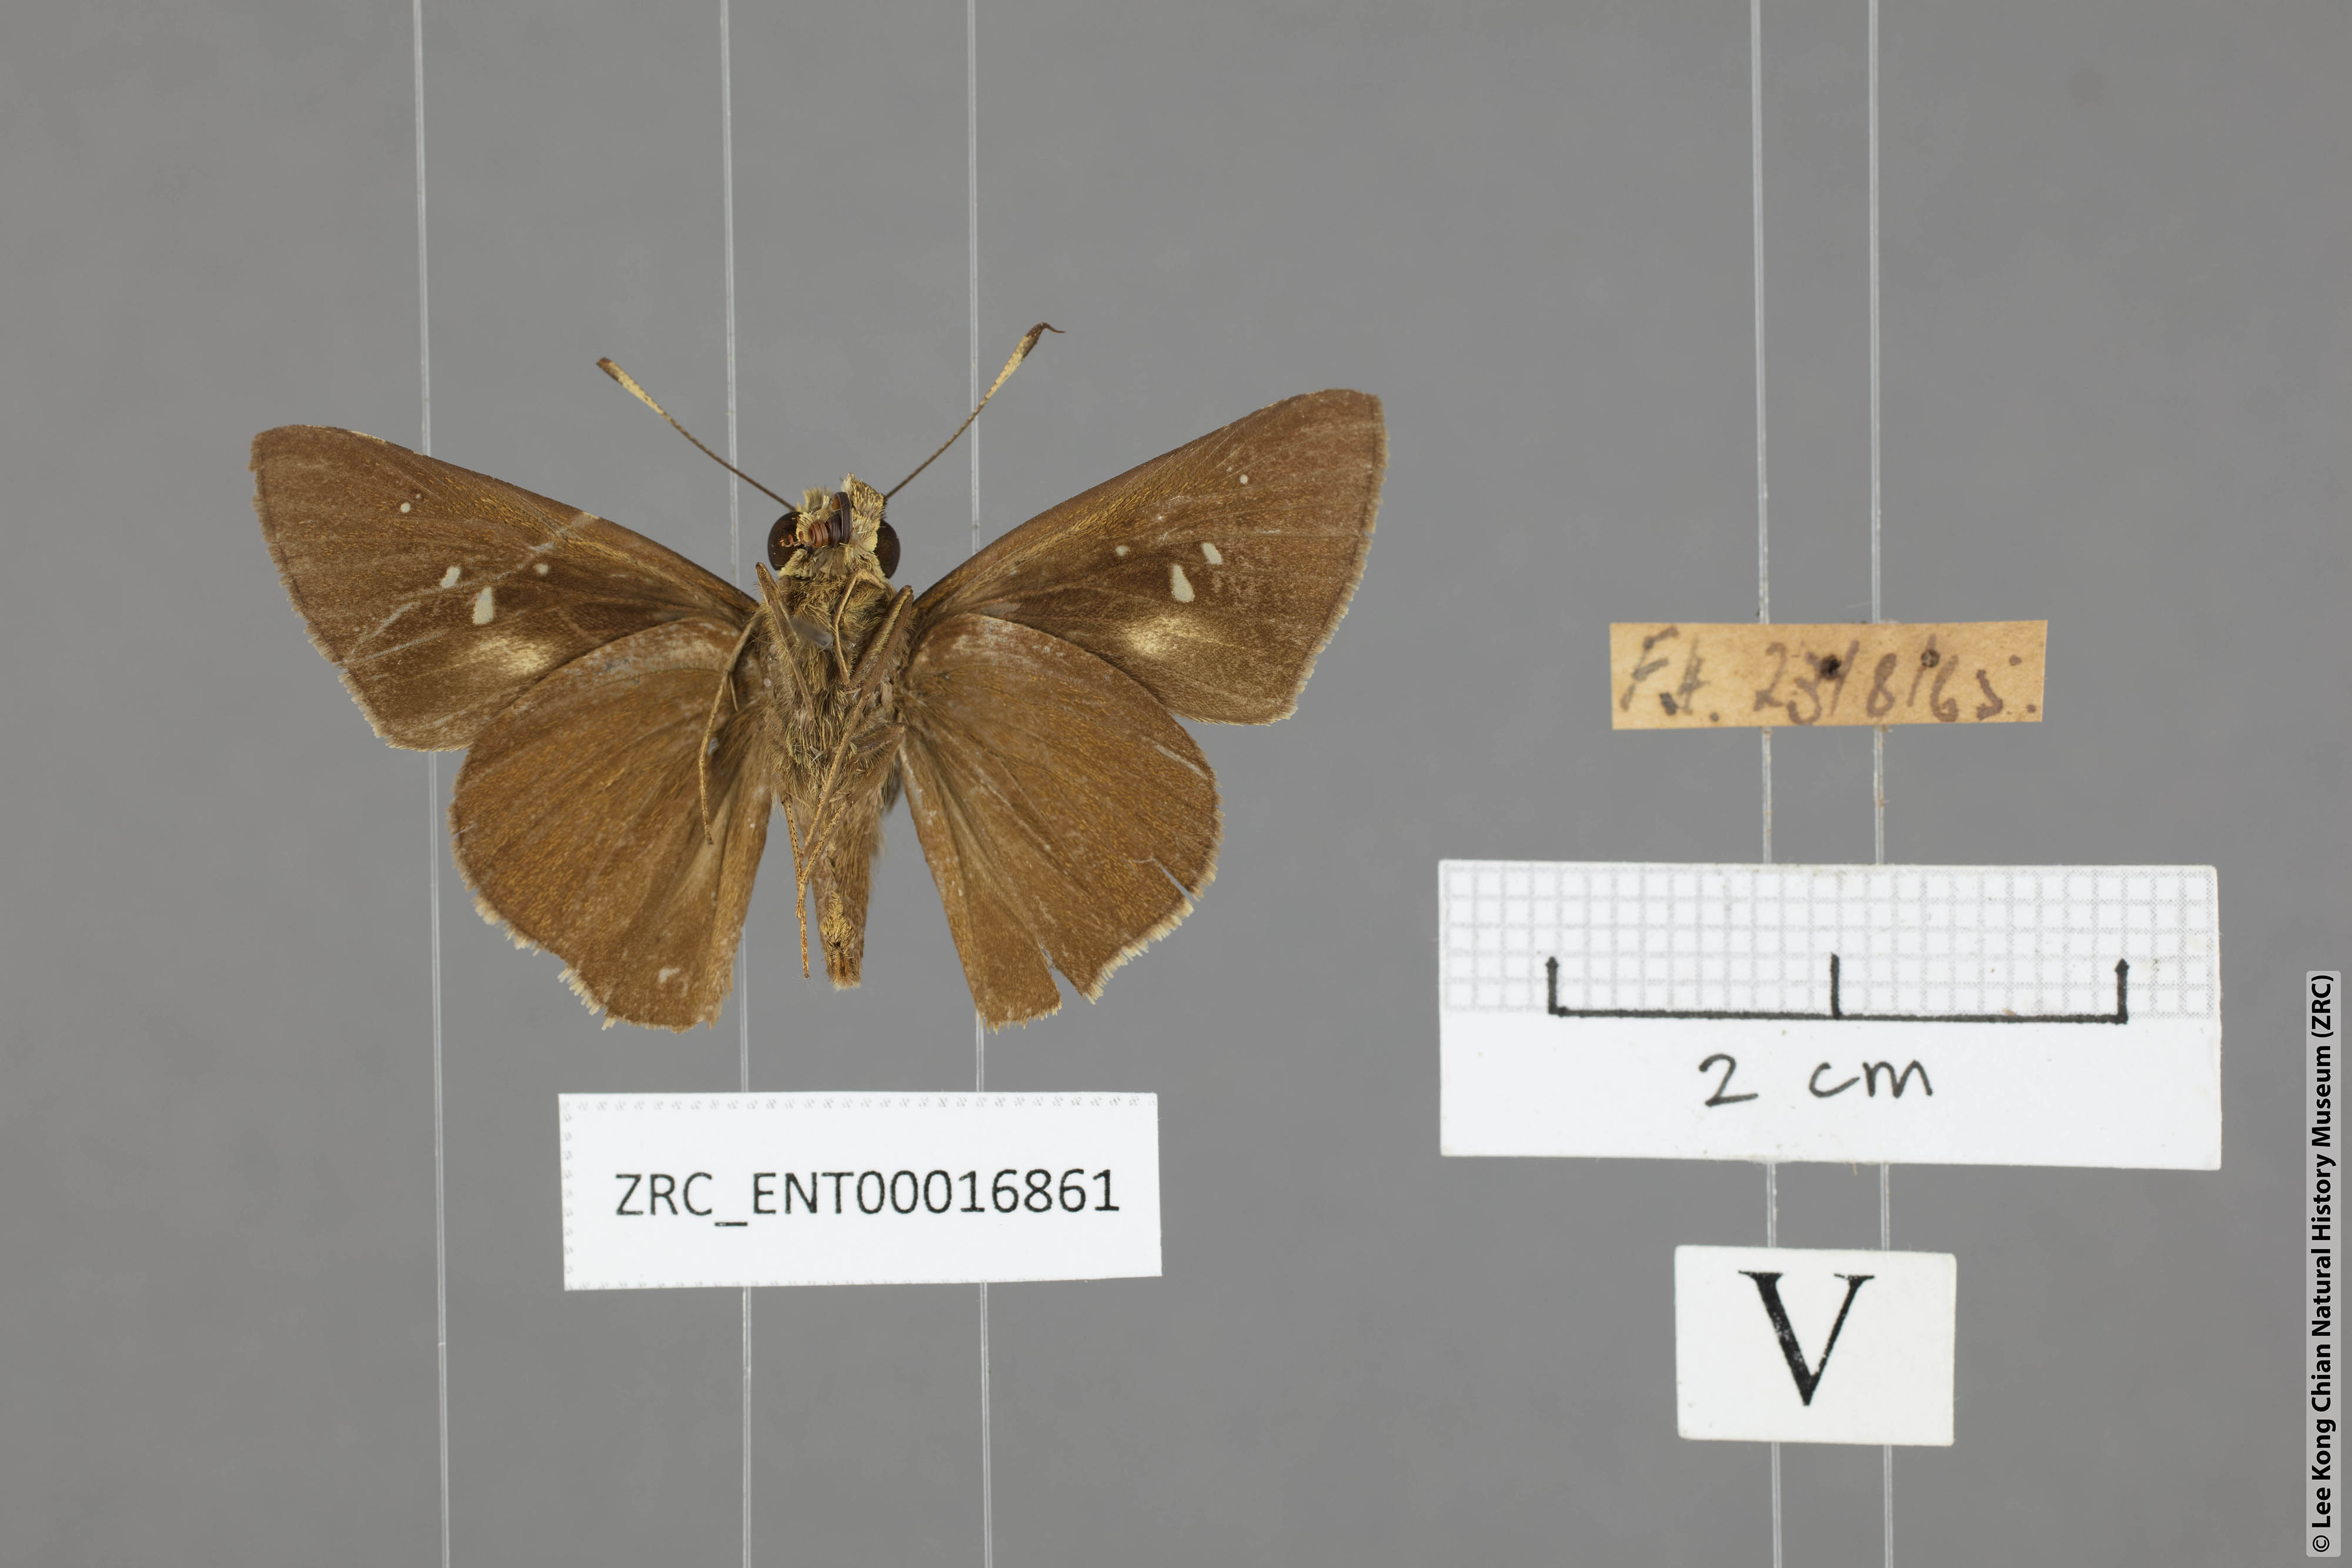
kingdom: Animalia
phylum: Arthropoda
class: Insecta
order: Lepidoptera
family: Hesperiidae
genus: Caltoris
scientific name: Caltoris sirius
